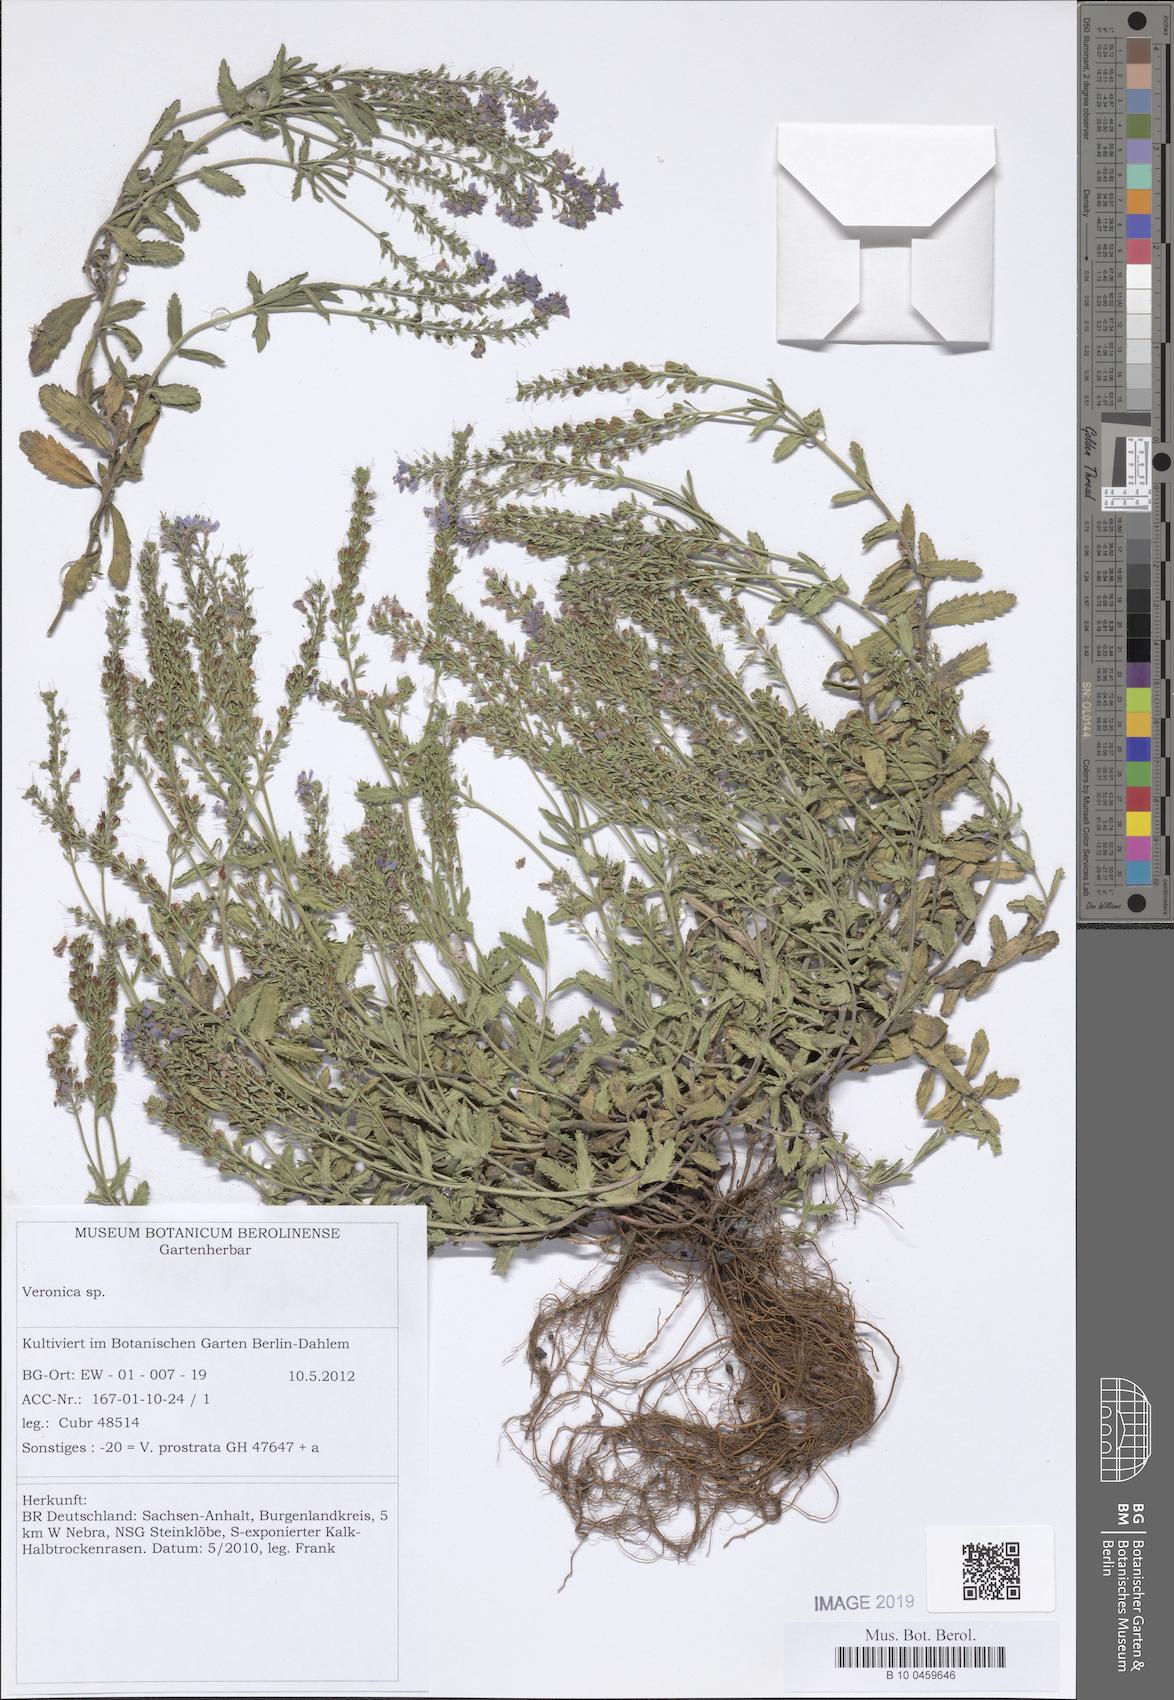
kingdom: Plantae
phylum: Tracheophyta
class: Magnoliopsida
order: Lamiales
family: Plantaginaceae
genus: Veronica
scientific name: Veronica prostrata
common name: Prostrate speedwell
